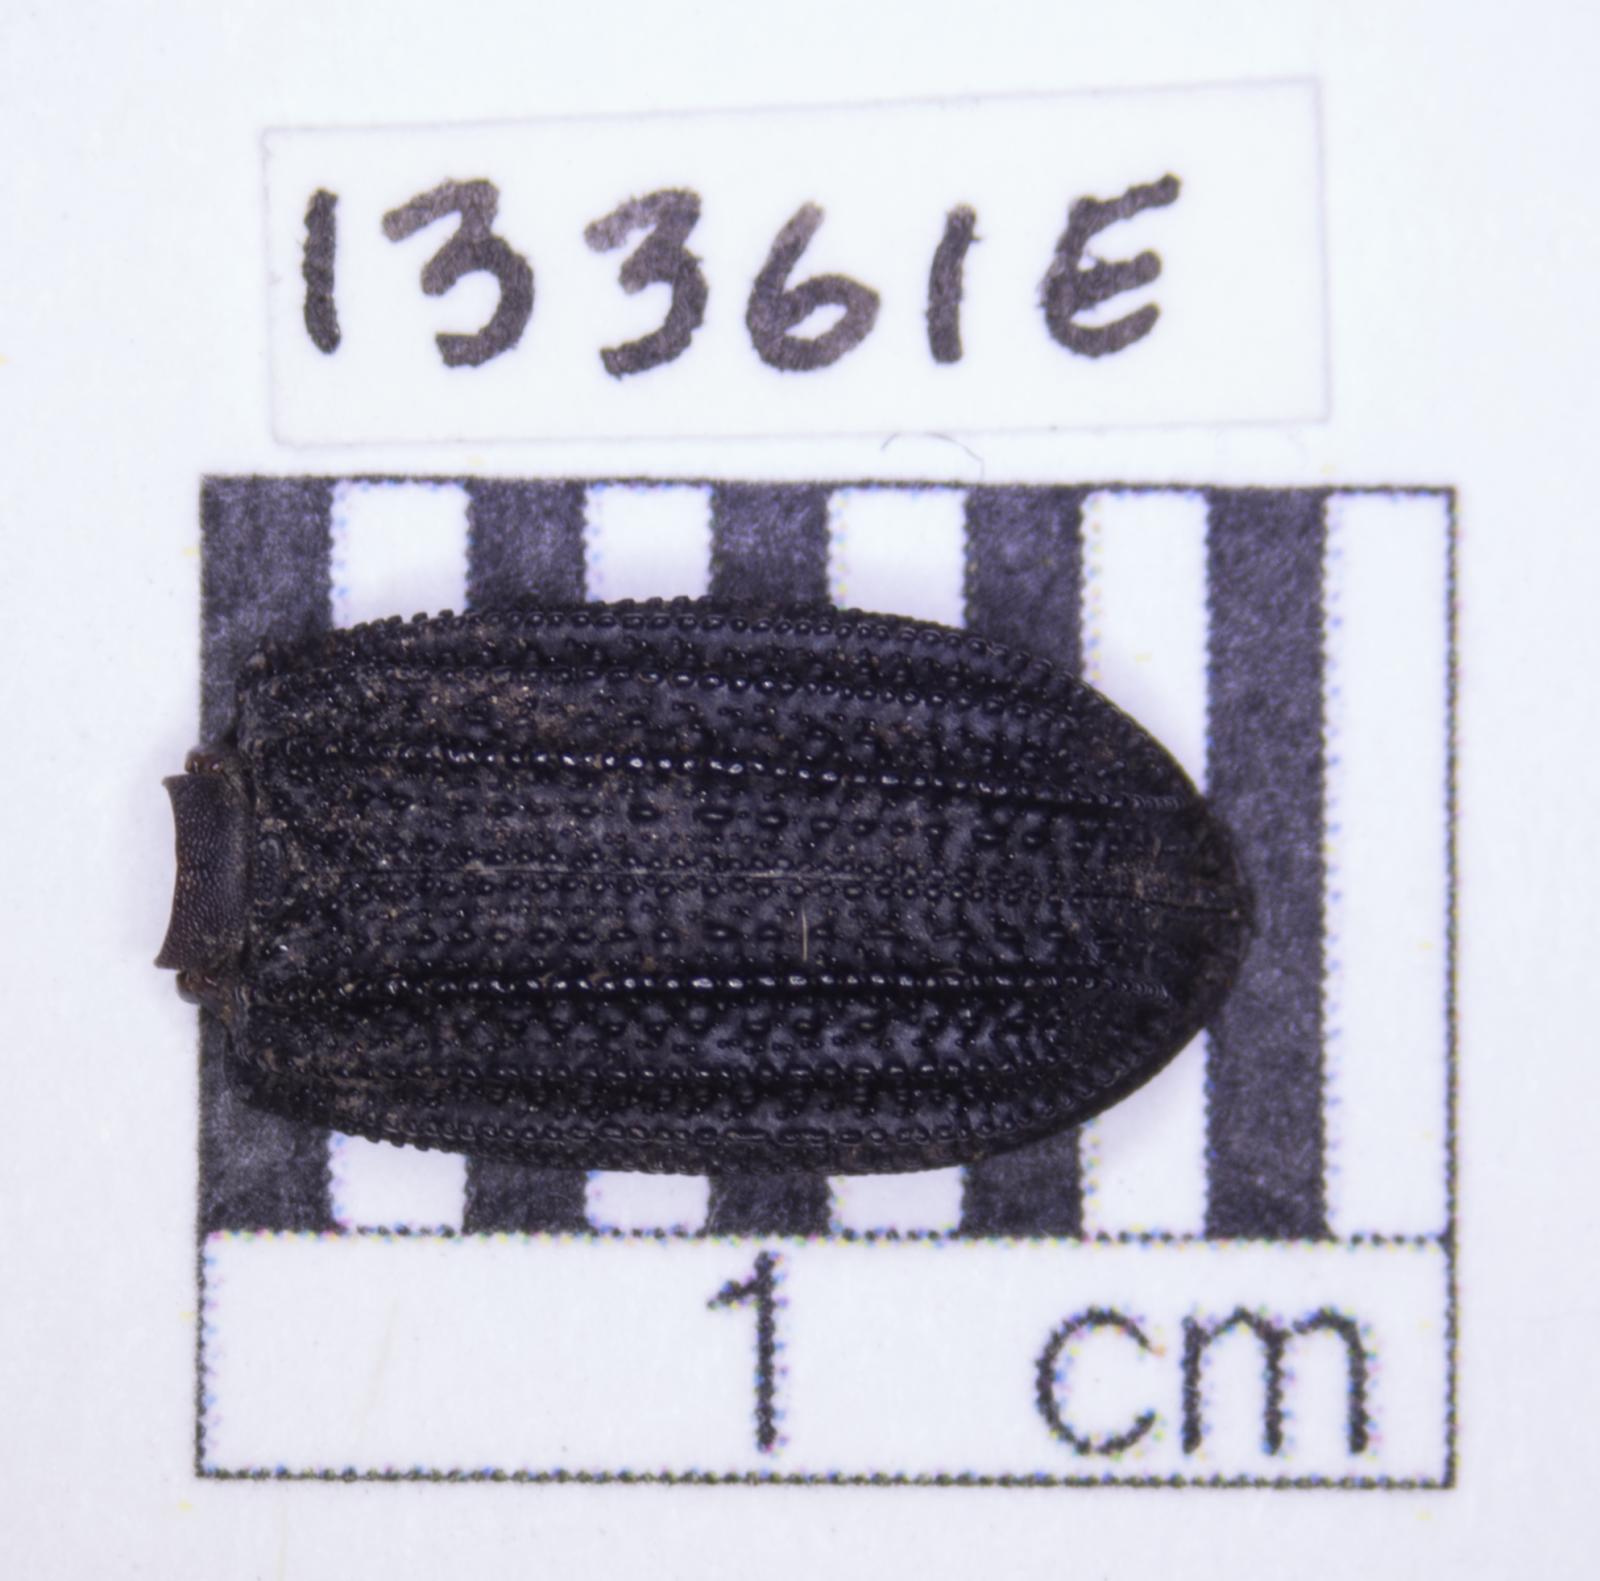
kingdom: Animalia
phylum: Arthropoda
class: Insecta
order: Coleoptera
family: Tenebrionidae
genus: Nyctoporis
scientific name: Nyctoporis carinata
